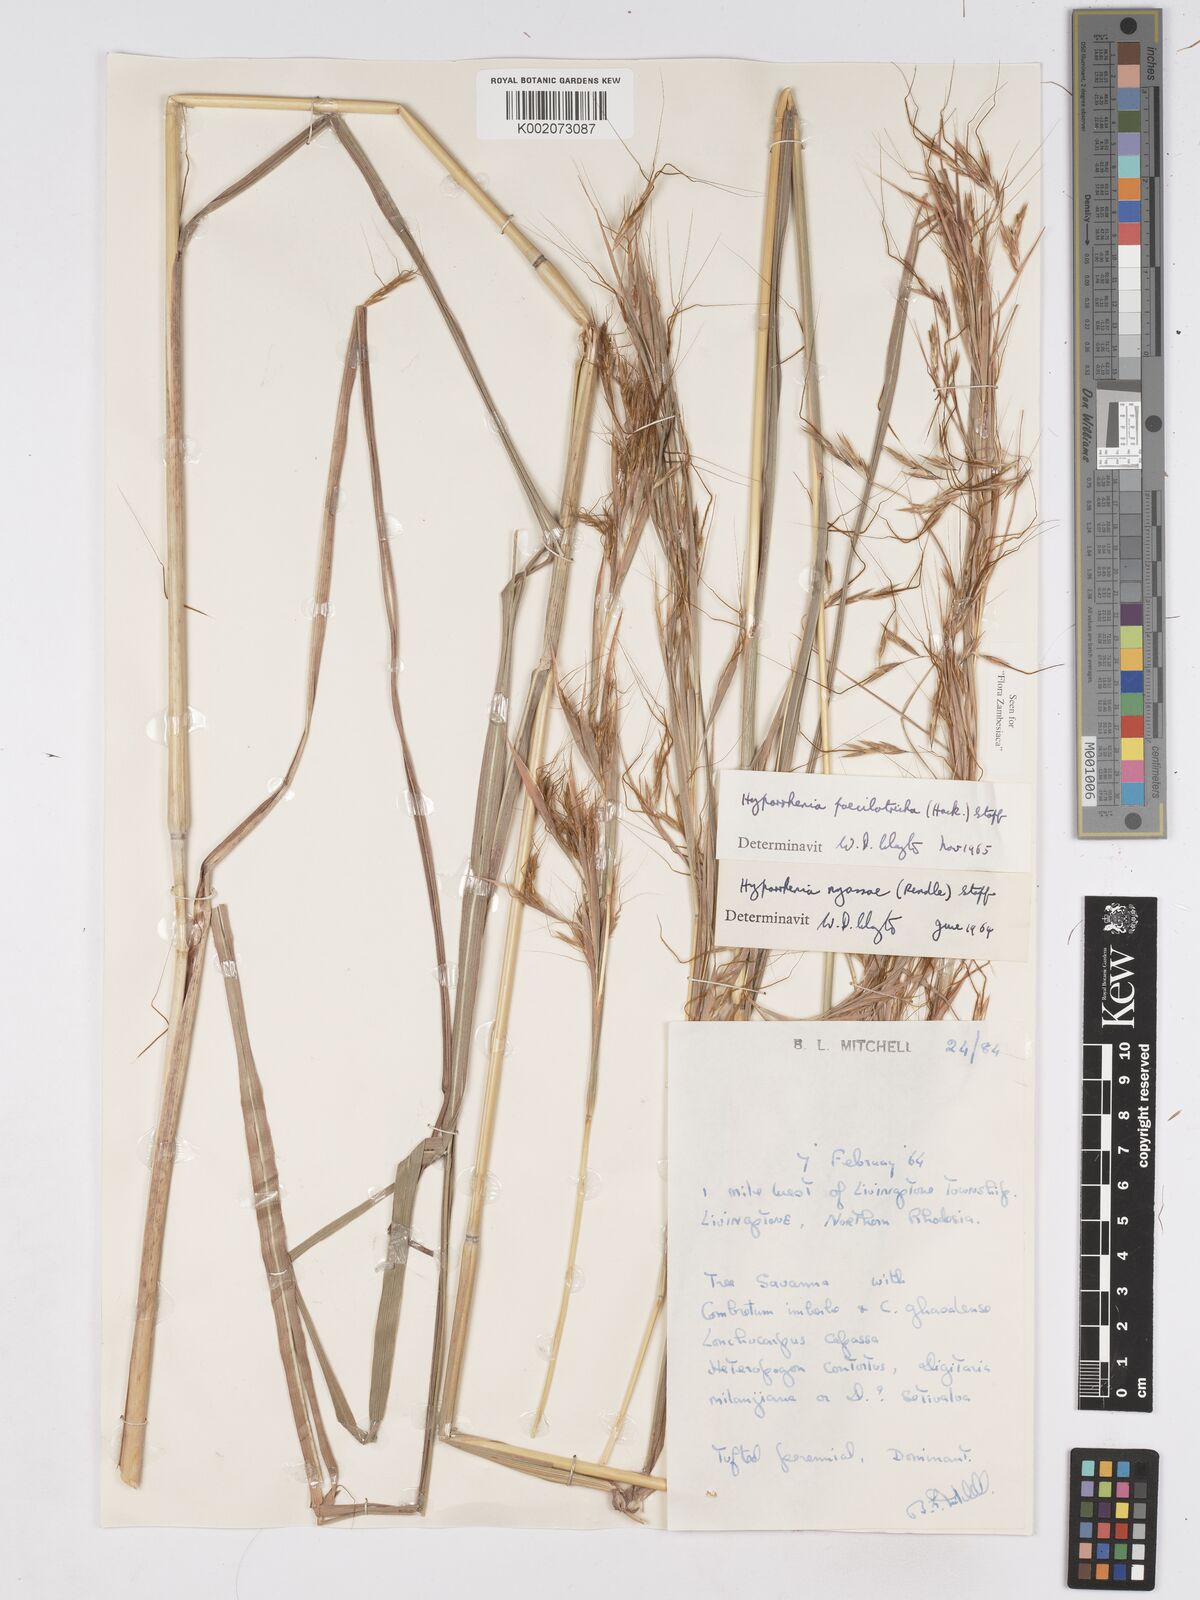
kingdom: Plantae
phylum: Tracheophyta
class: Liliopsida
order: Poales
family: Poaceae
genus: Hyparrhenia
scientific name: Hyparrhenia poecilotricha
